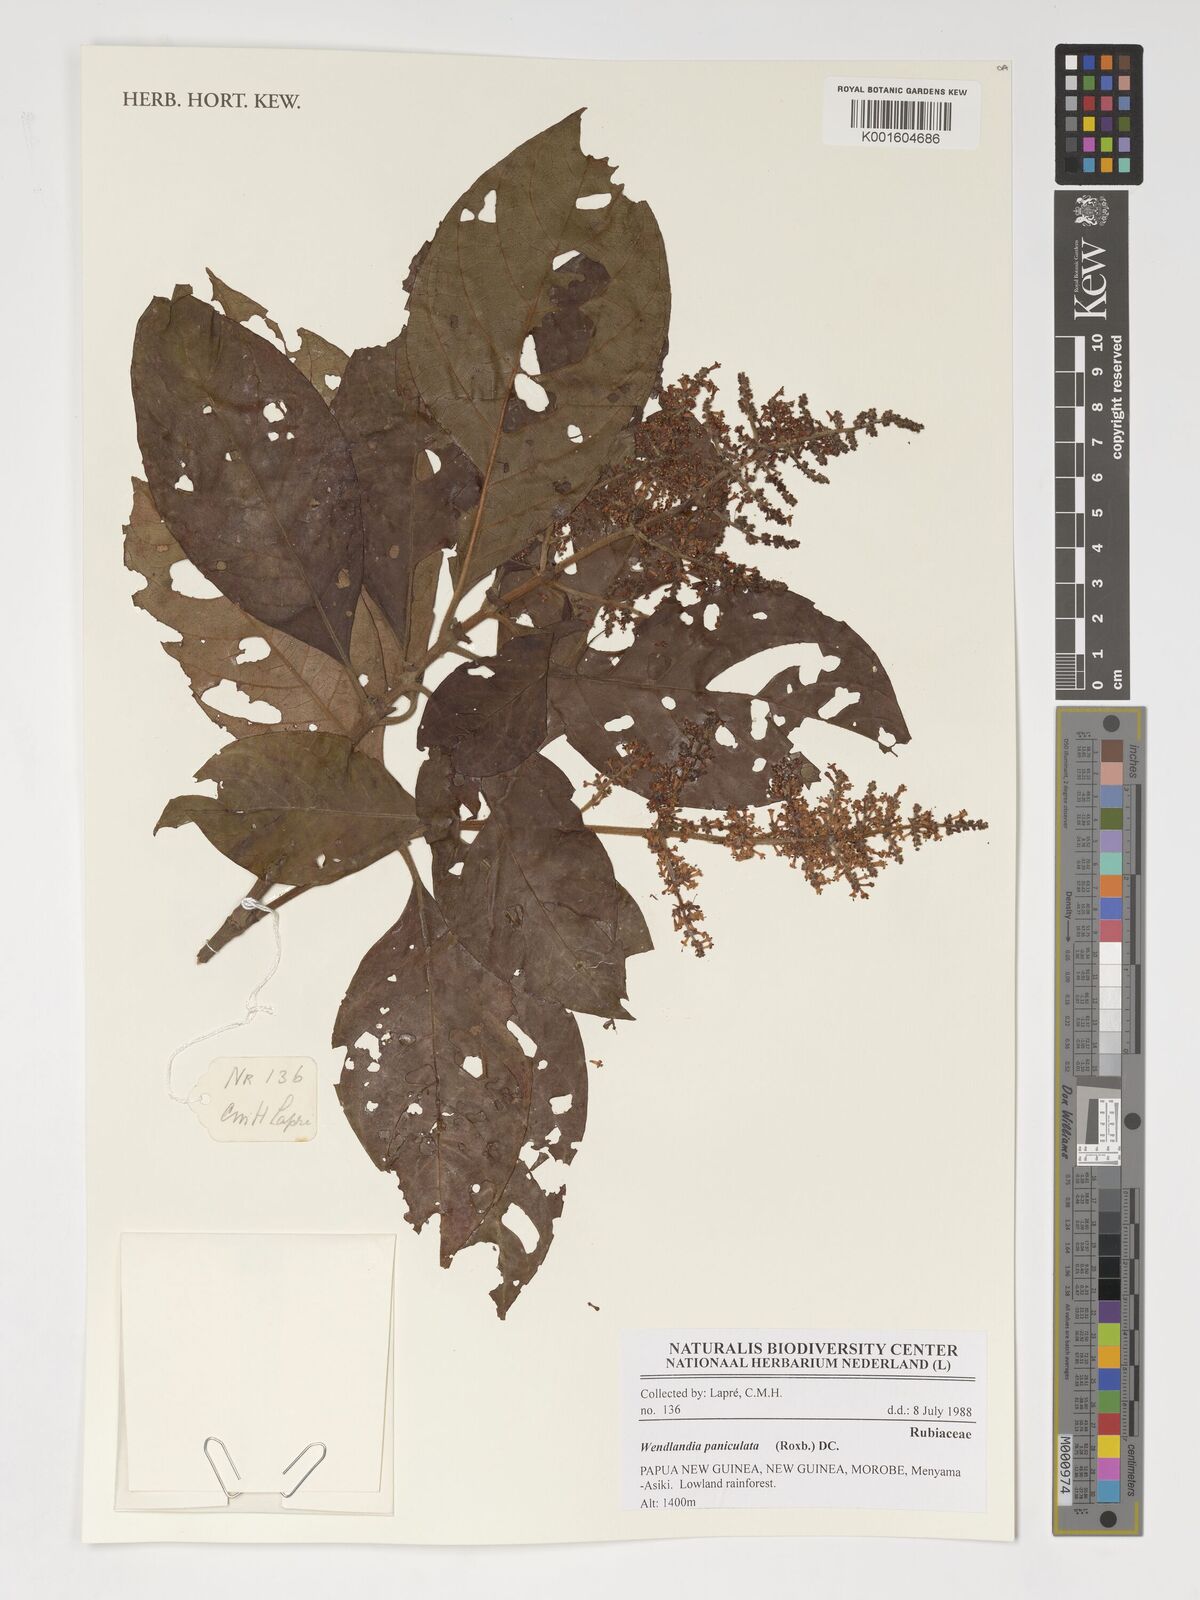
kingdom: Plantae
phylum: Tracheophyta
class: Magnoliopsida
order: Gentianales
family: Rubiaceae
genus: Wendlandia
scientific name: Wendlandia paniculata
